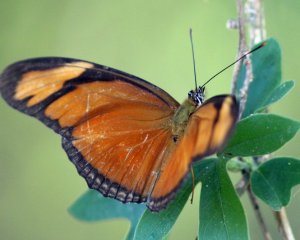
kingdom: Animalia
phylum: Arthropoda
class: Insecta
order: Lepidoptera
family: Nymphalidae
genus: Dryas
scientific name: Dryas iulia
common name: Julia
